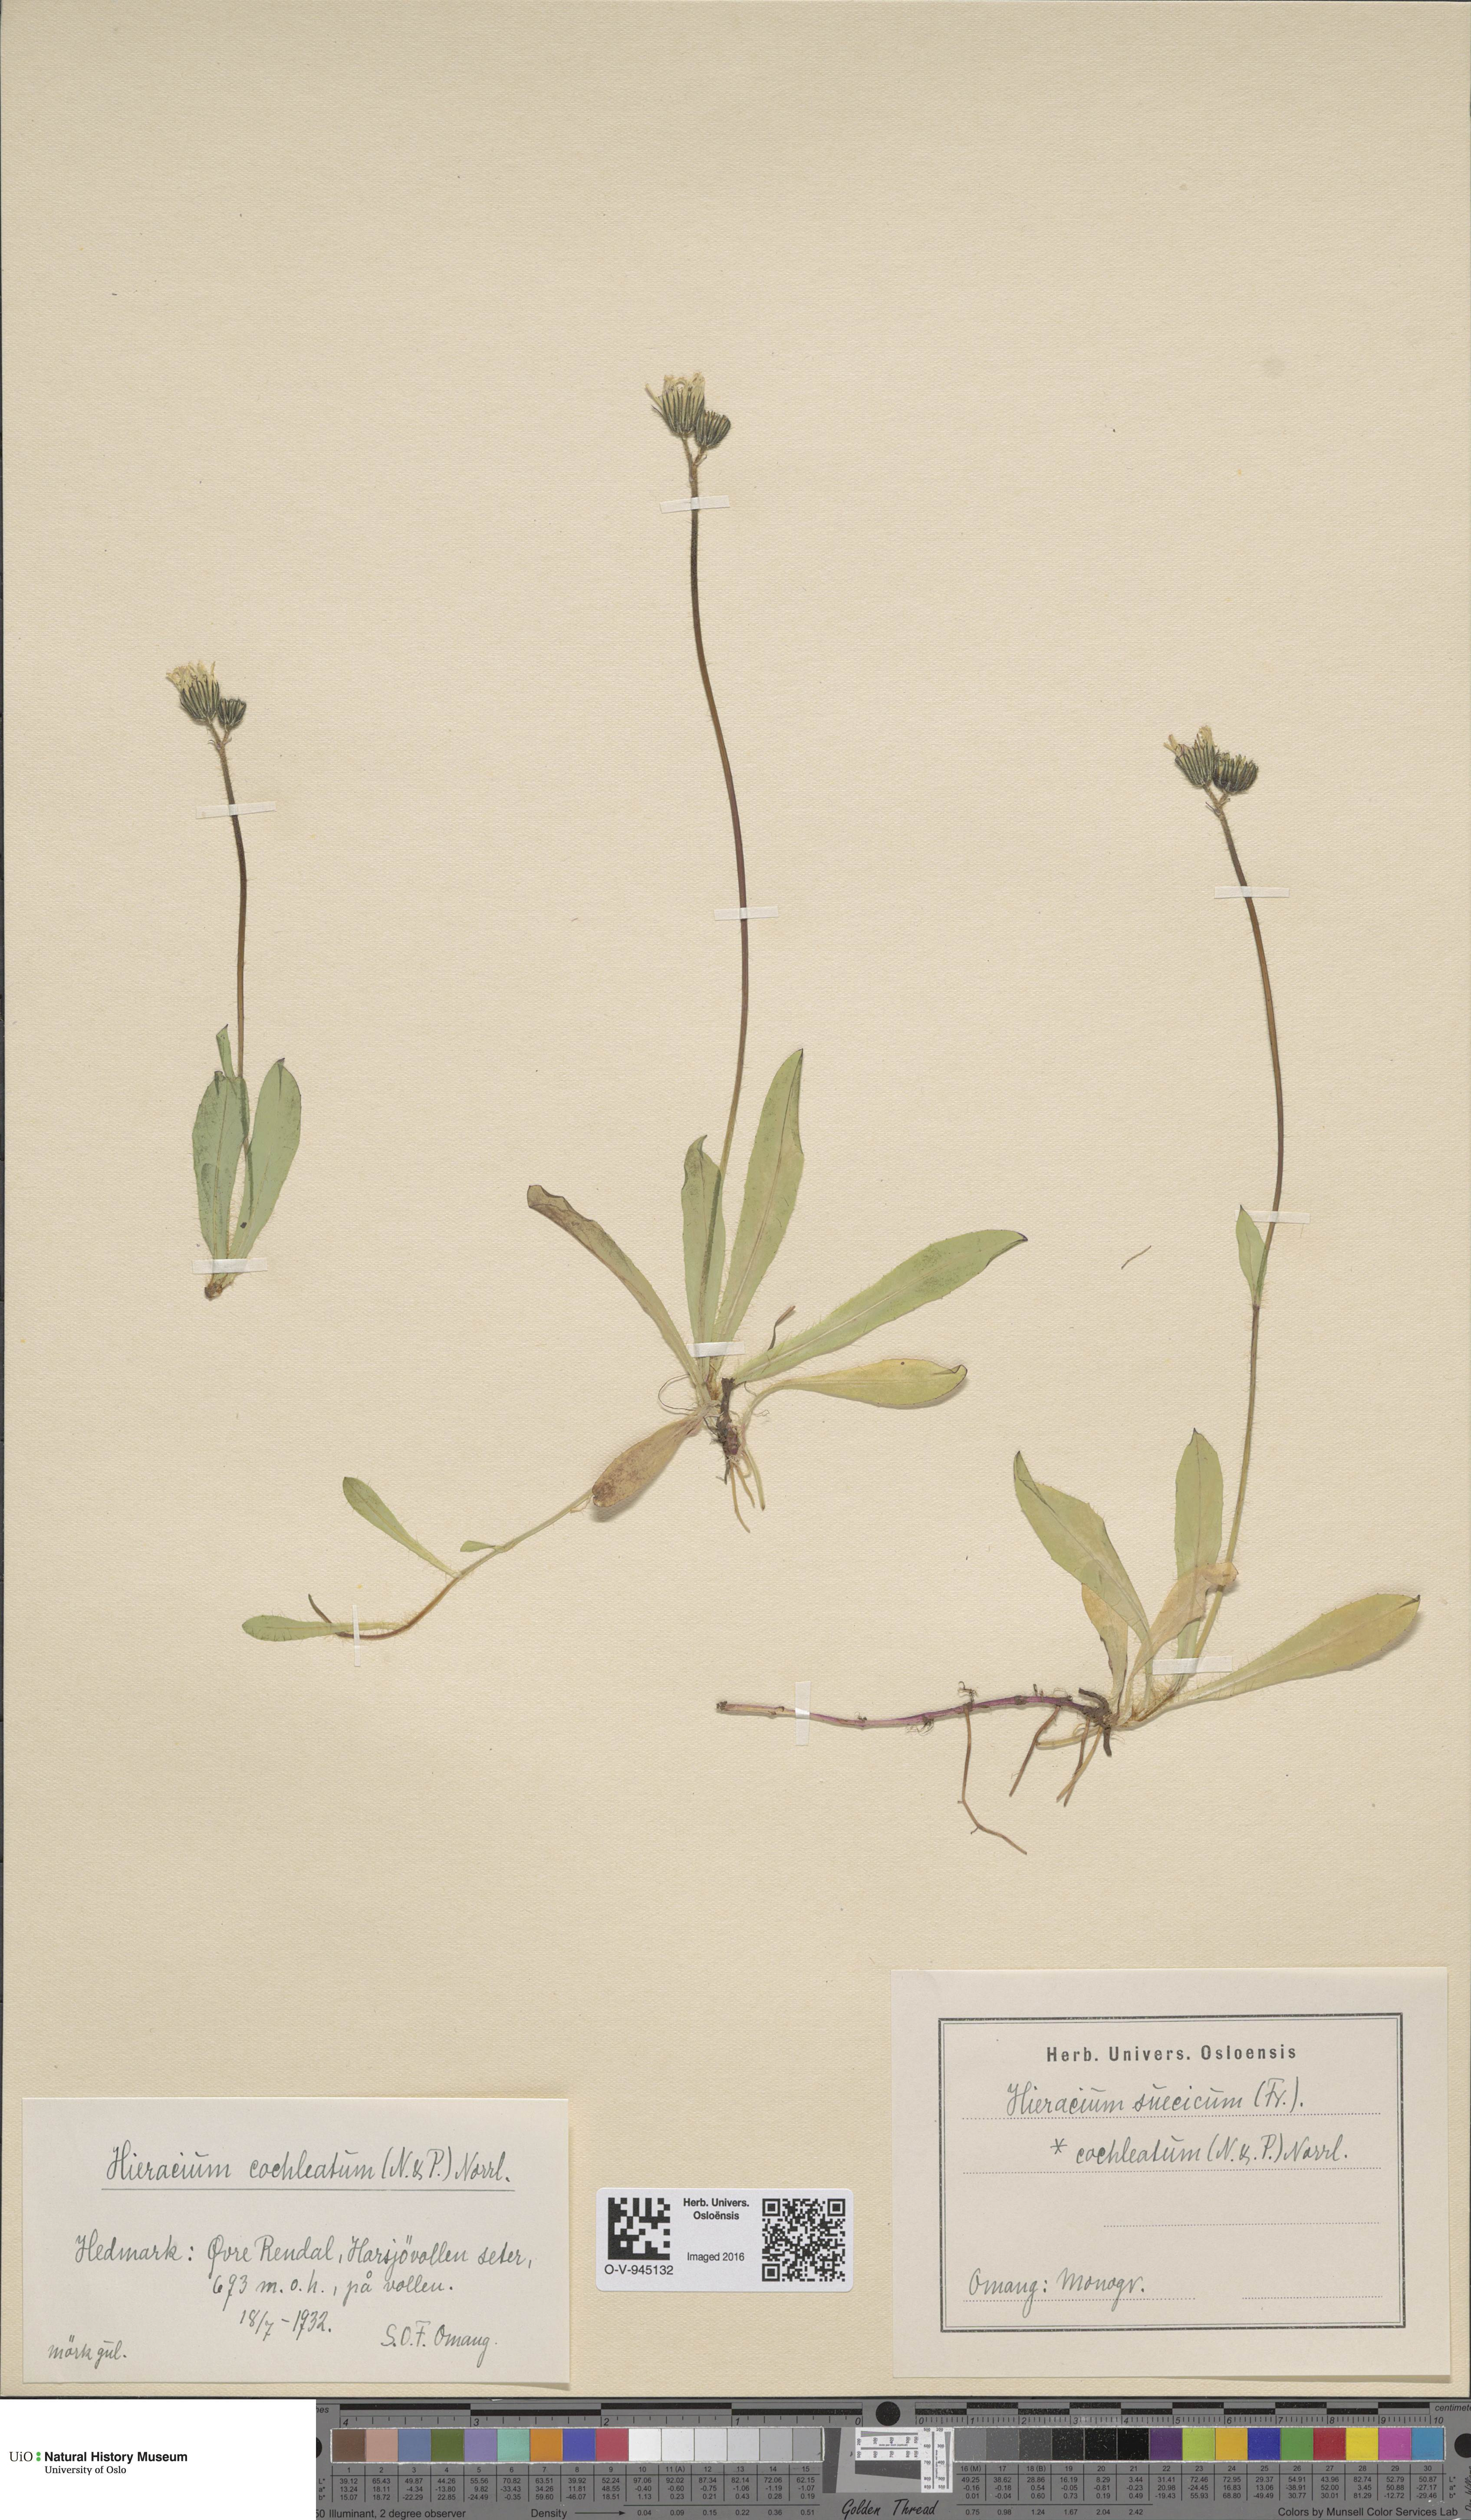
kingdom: Plantae
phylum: Tracheophyta
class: Magnoliopsida
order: Asterales
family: Asteraceae
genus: Pilosella
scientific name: Pilosella dubia
